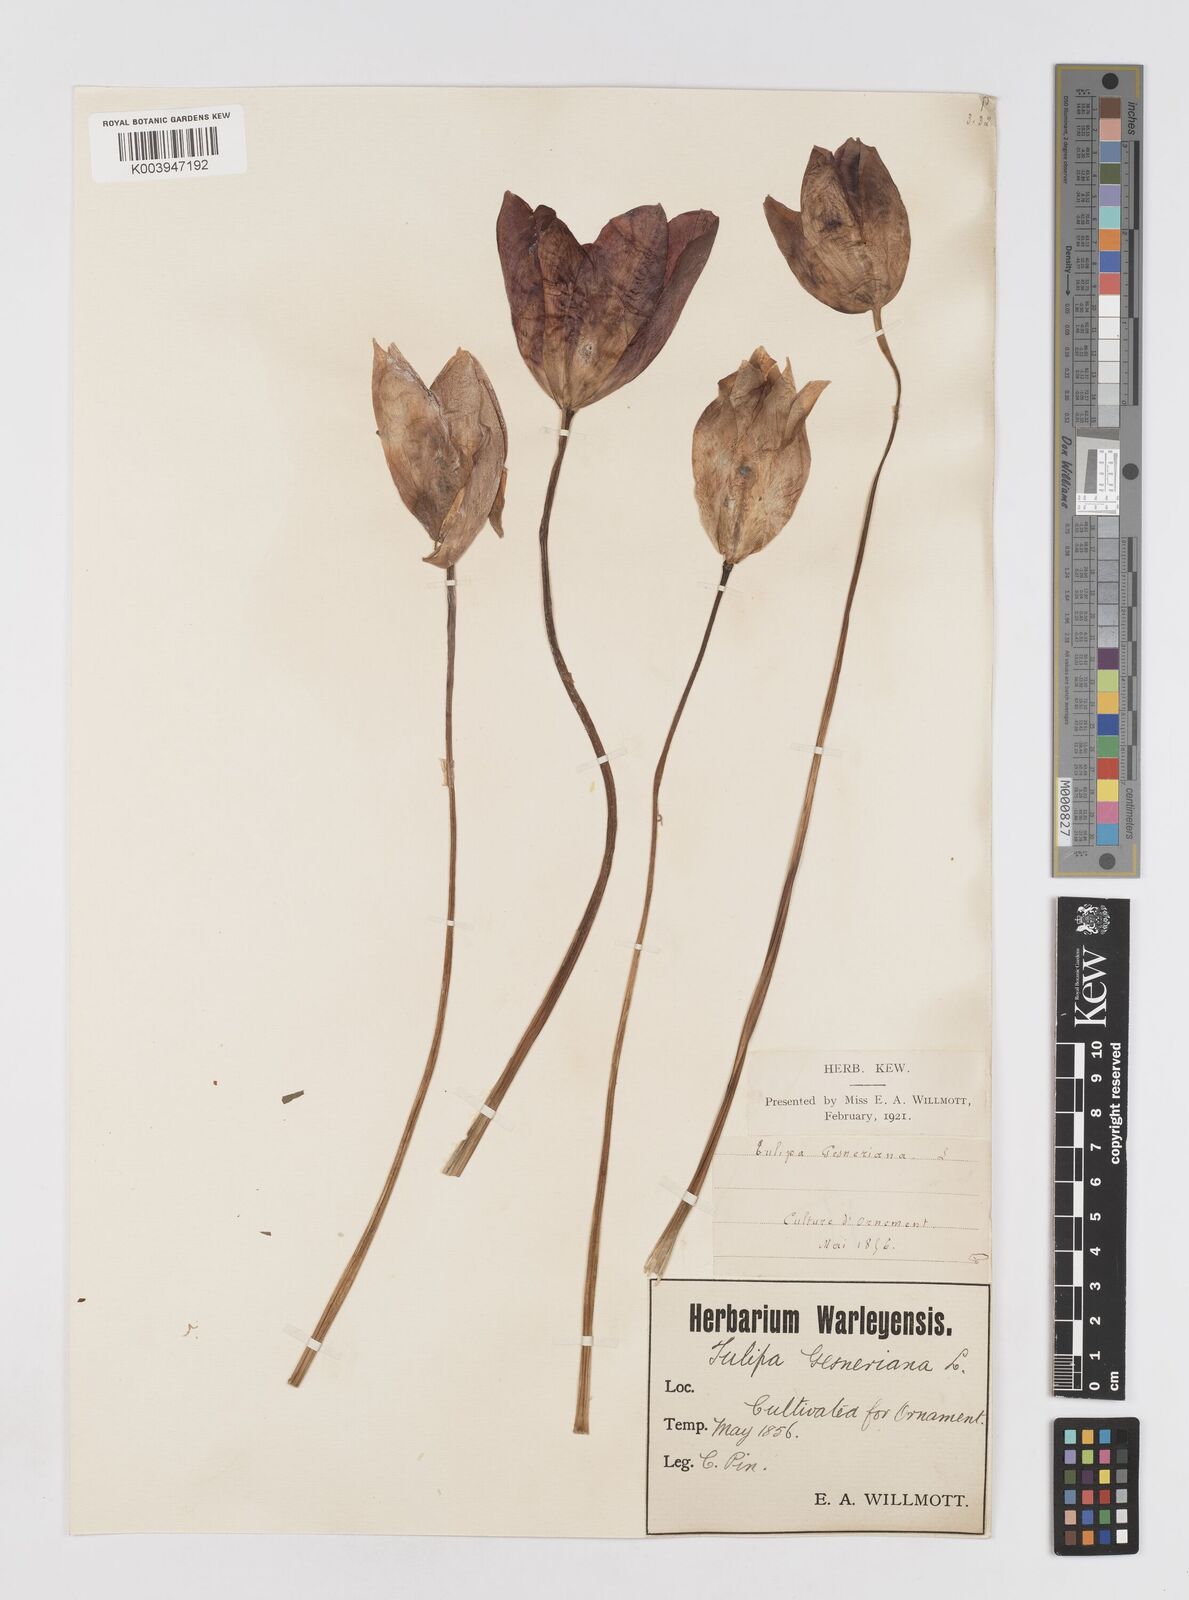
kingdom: Plantae
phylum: Tracheophyta
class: Liliopsida
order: Liliales
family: Liliaceae
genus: Tulipa
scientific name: Tulipa gesneriana
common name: Garden tulip
